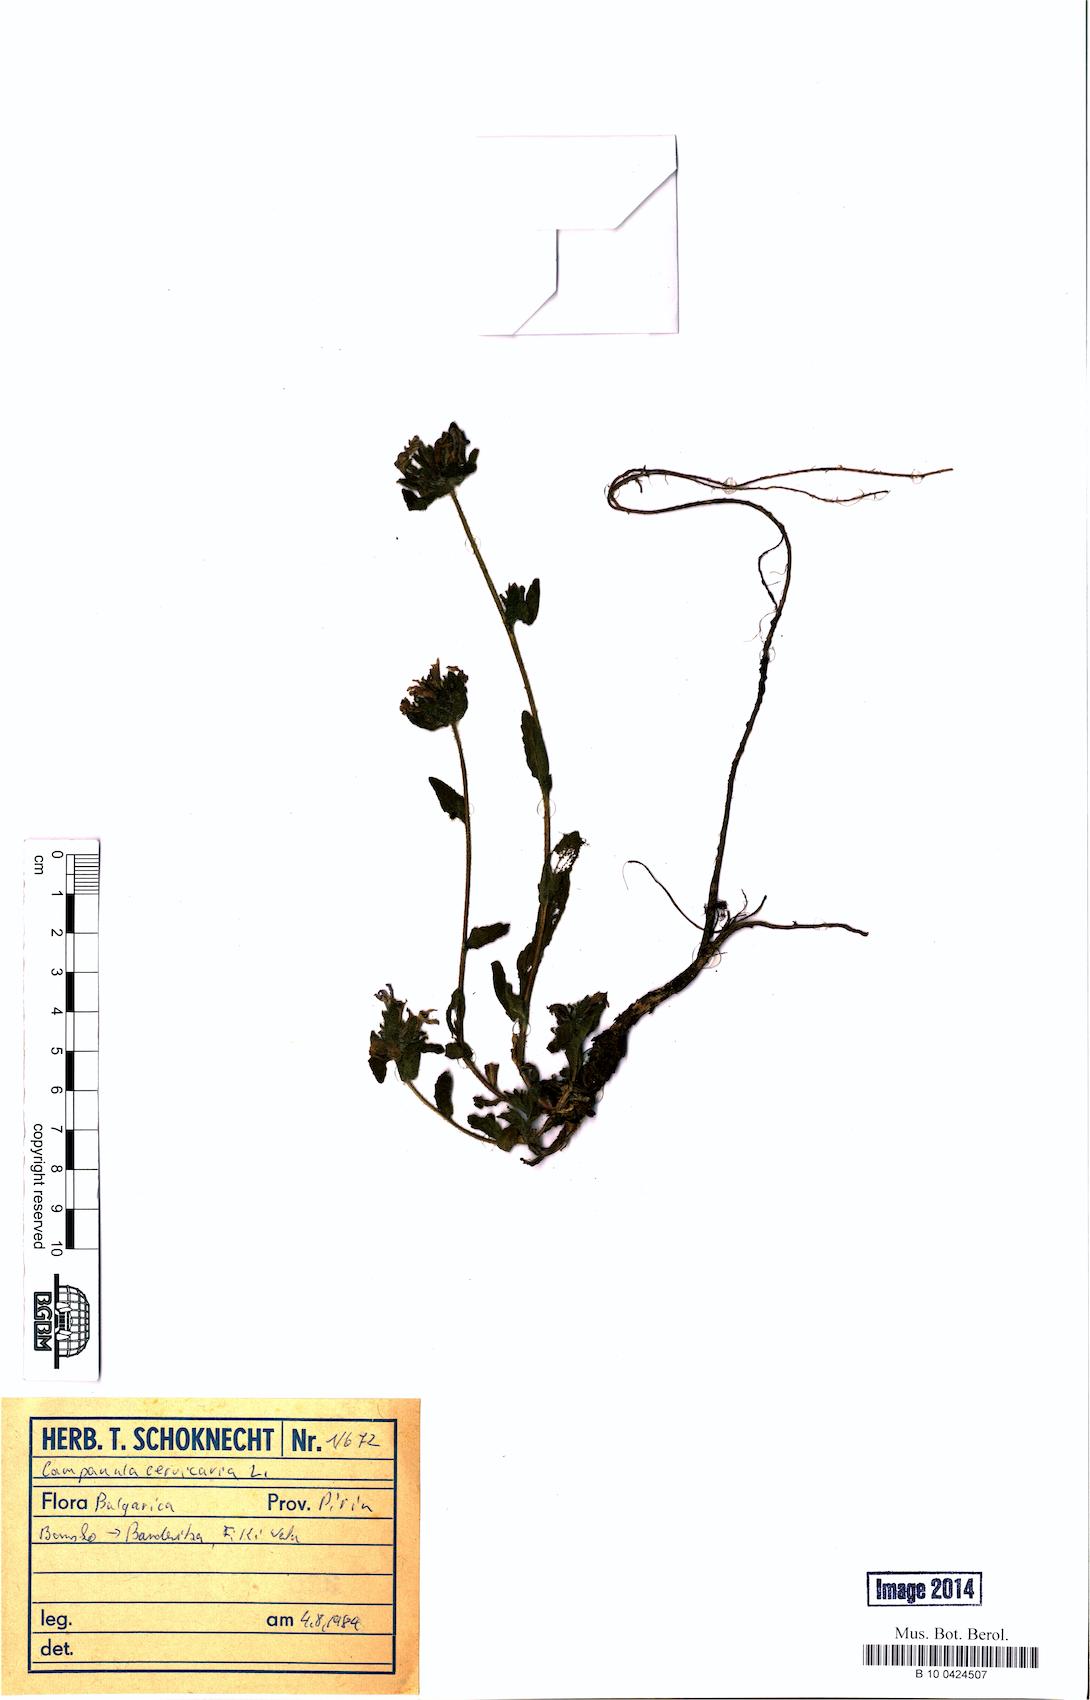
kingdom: Plantae
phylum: Tracheophyta
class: Magnoliopsida
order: Asterales
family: Campanulaceae
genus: Campanula
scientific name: Campanula cervicaria
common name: Bristly bellflower
